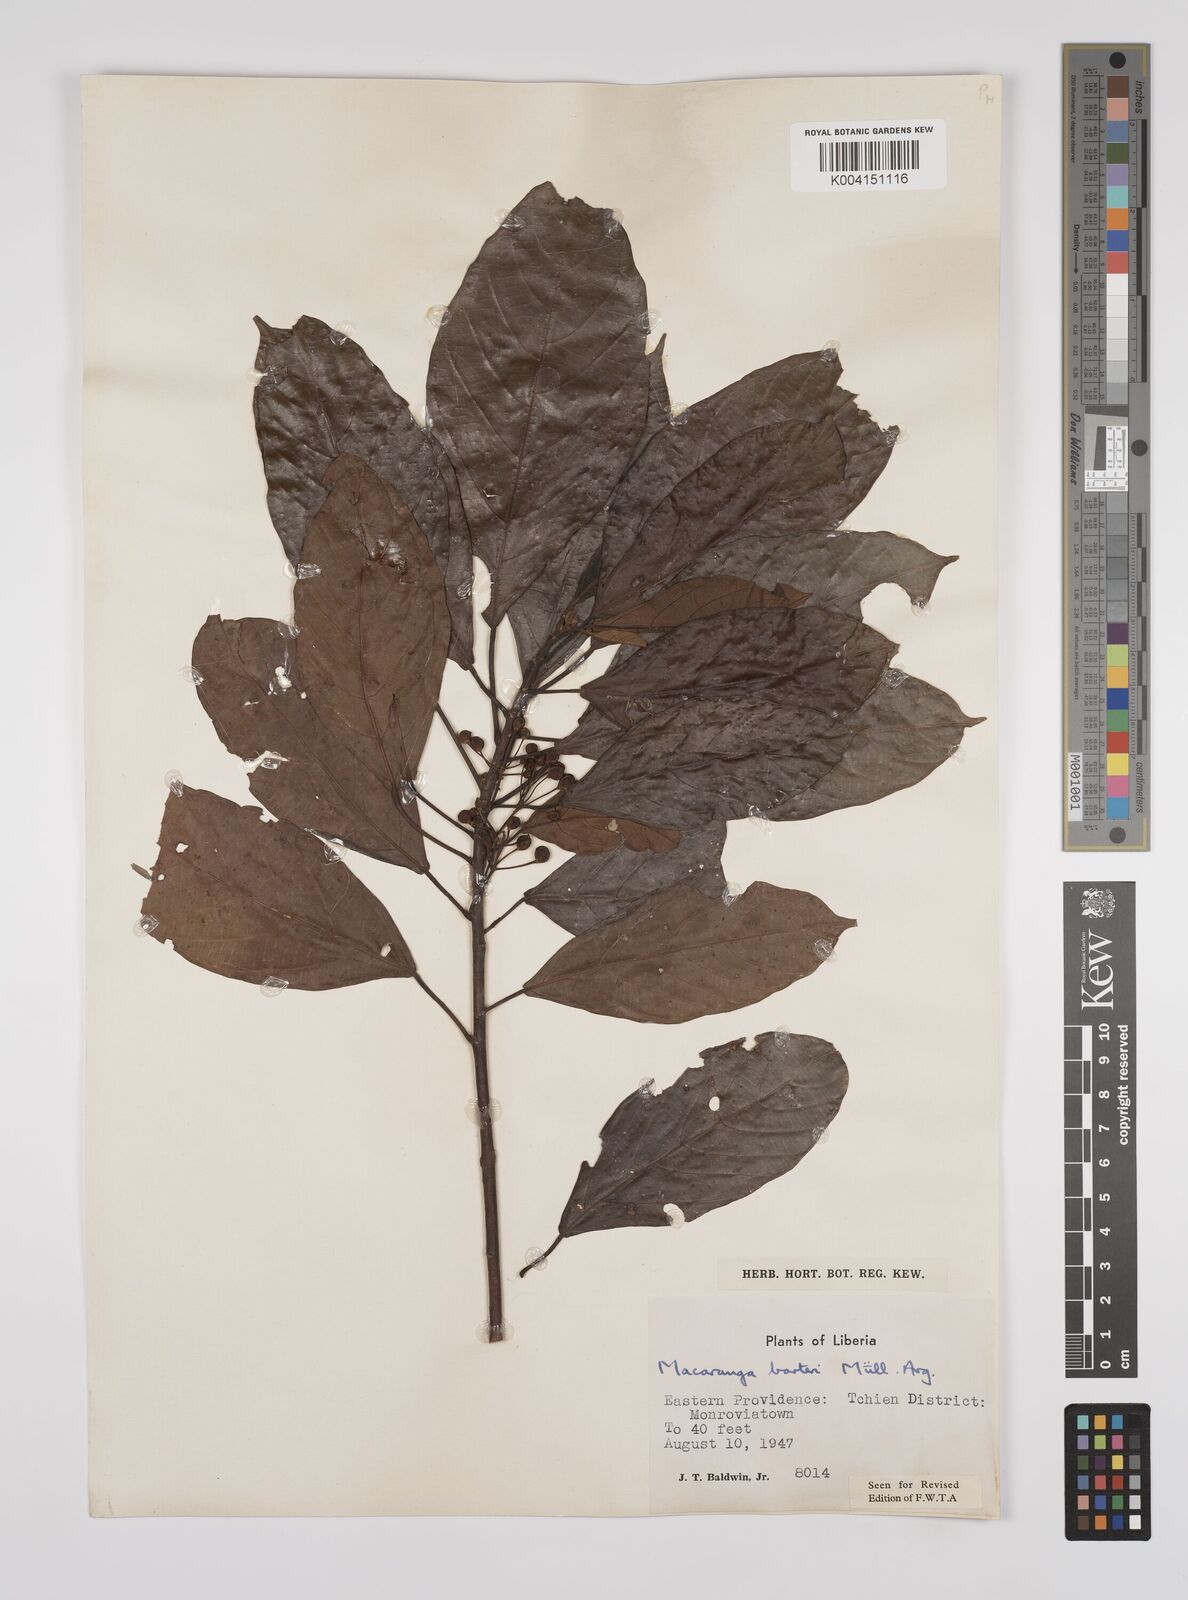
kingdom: Plantae
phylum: Tracheophyta
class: Magnoliopsida
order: Malpighiales
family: Euphorbiaceae
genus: Macaranga
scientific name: Macaranga barteri
